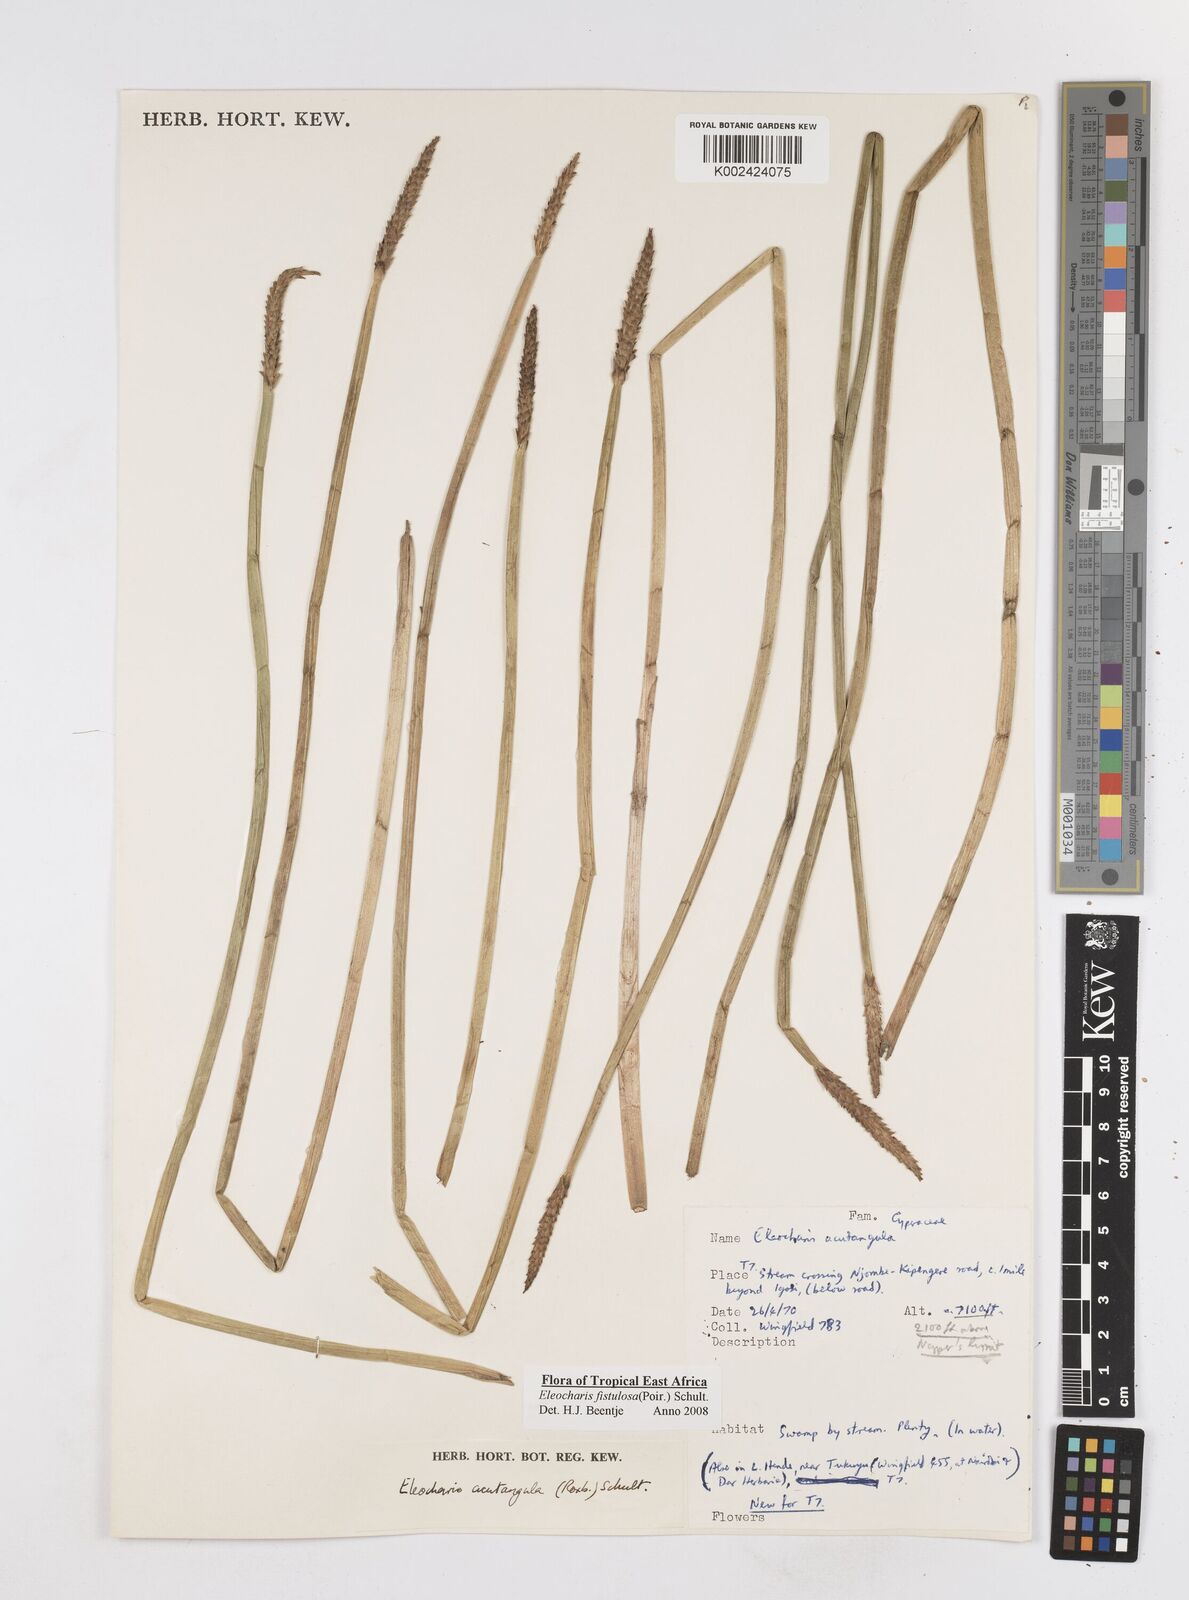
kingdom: Plantae
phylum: Tracheophyta
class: Liliopsida
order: Poales
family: Cyperaceae
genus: Eleocharis
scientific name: Eleocharis acutangula
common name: Acute spikerush
